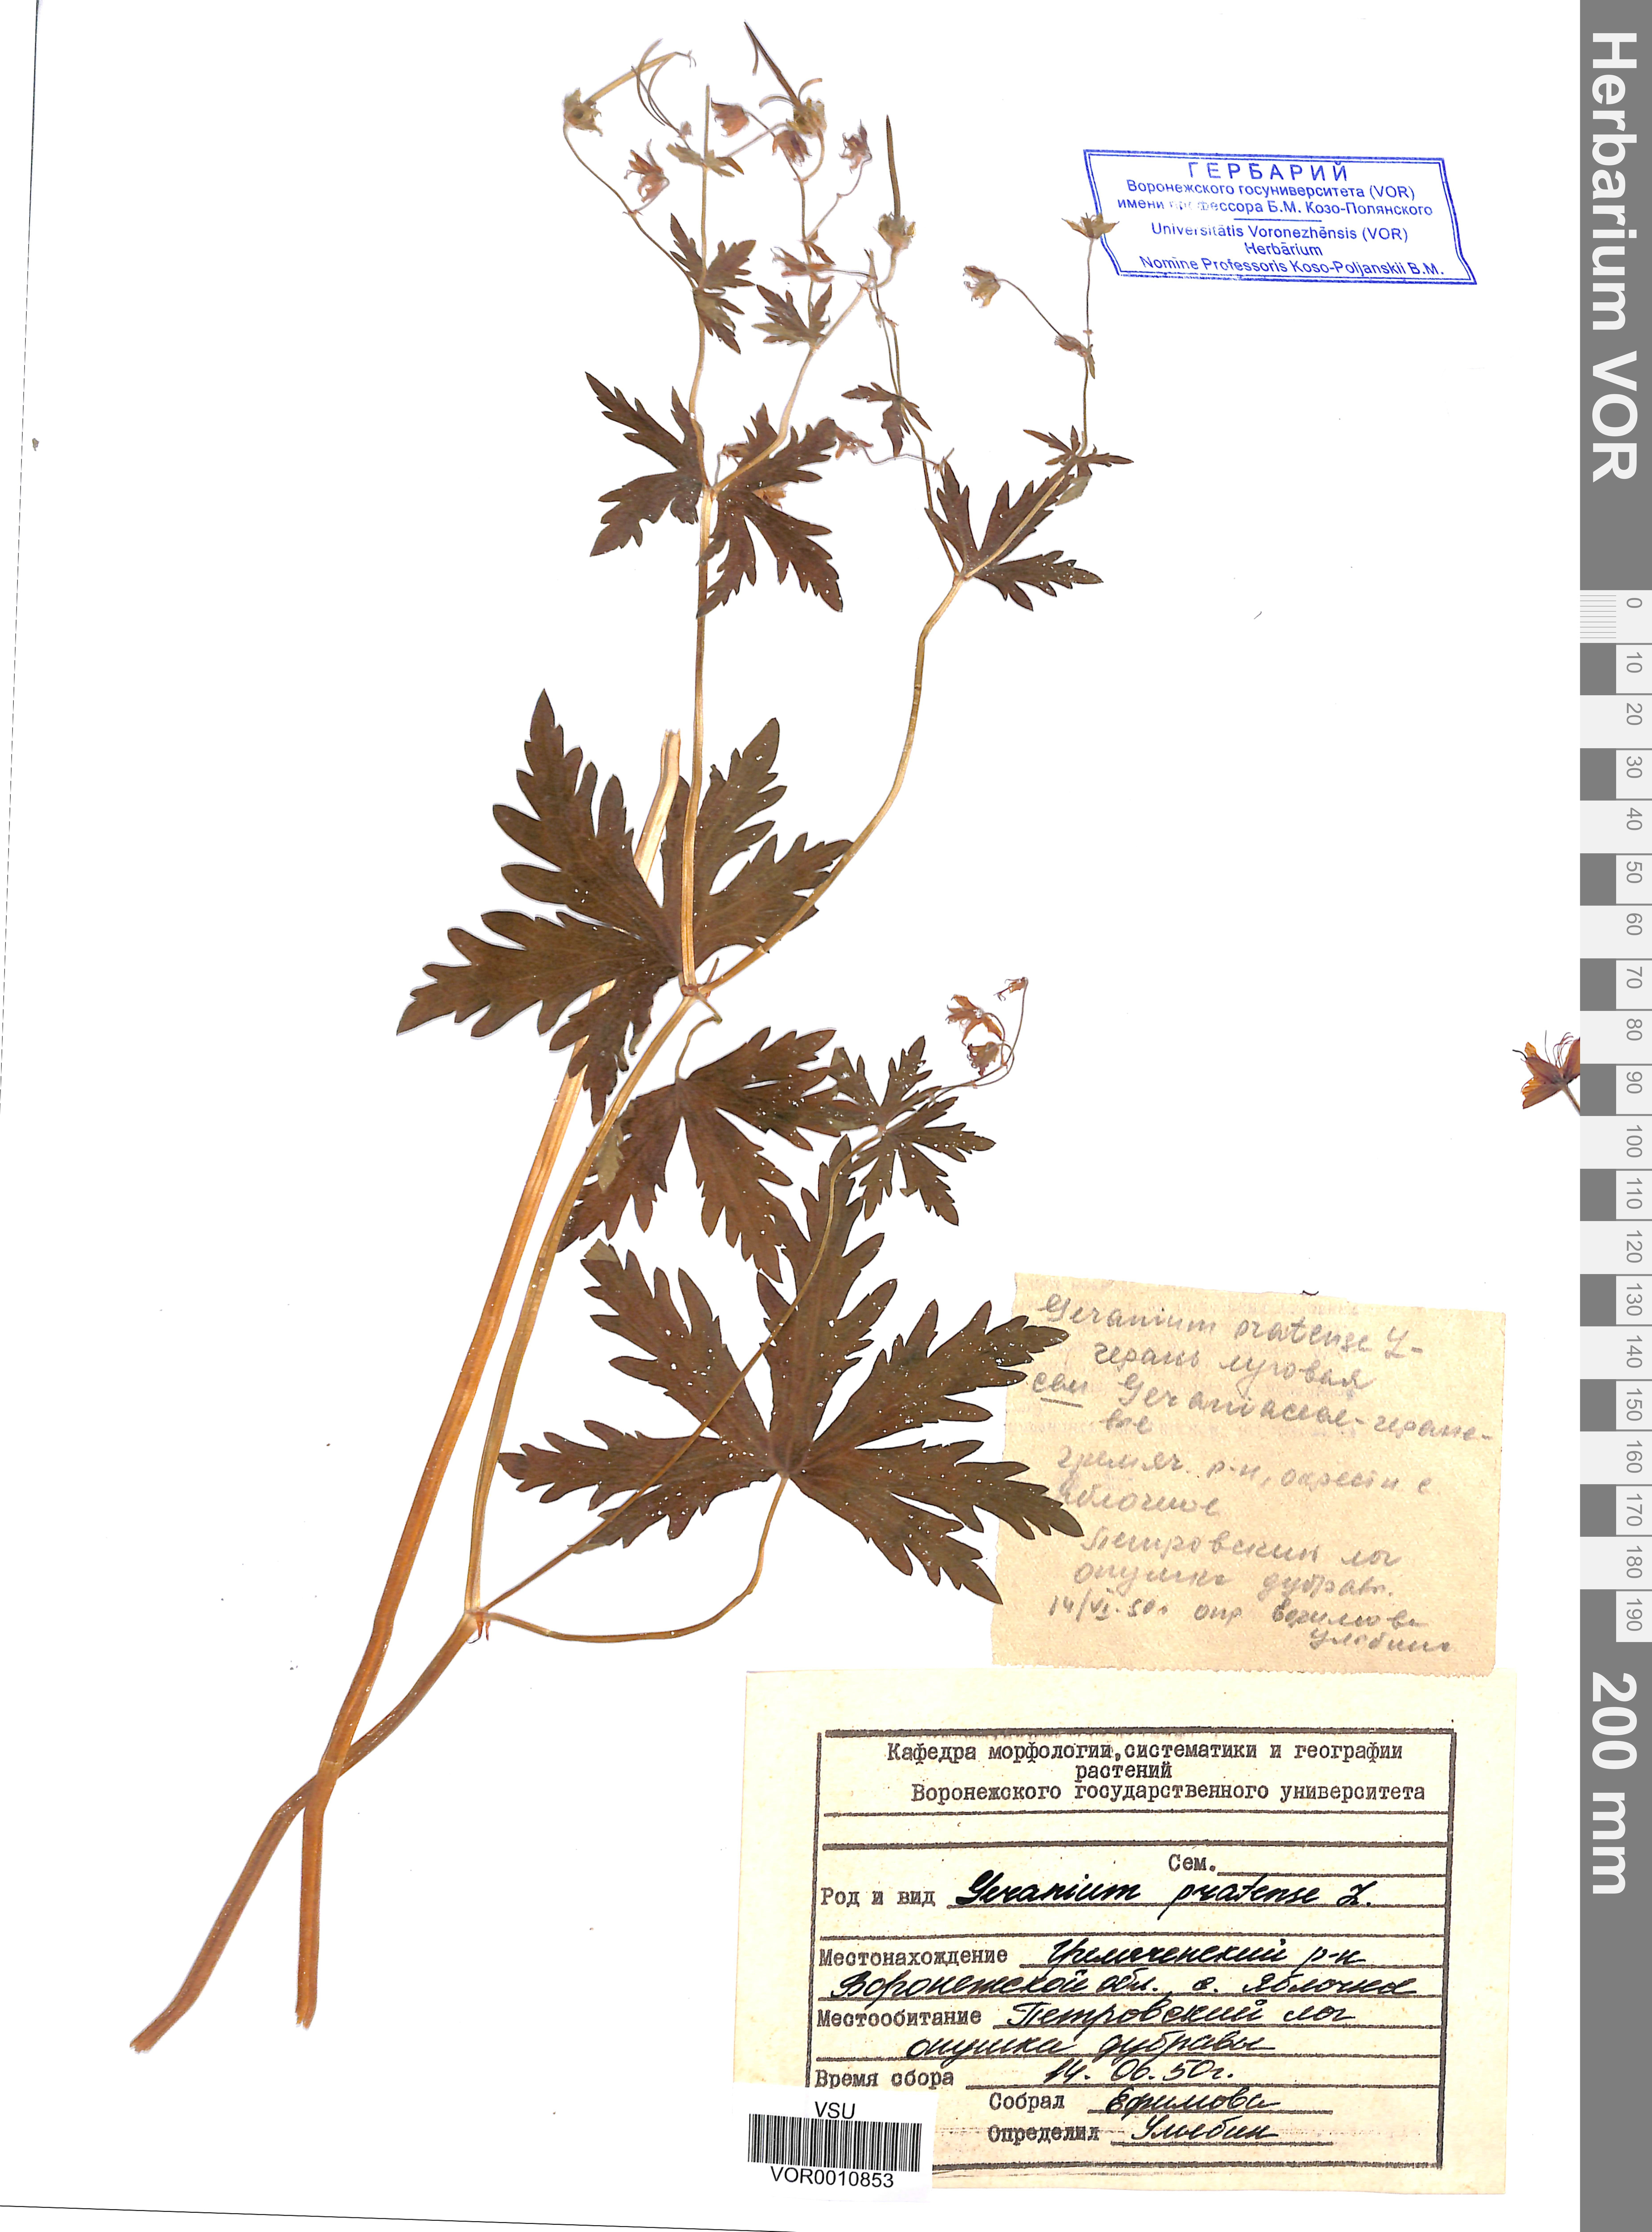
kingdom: Plantae
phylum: Tracheophyta
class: Magnoliopsida
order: Geraniales
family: Geraniaceae
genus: Geranium
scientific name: Geranium pratense
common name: Meadow crane's-bill
